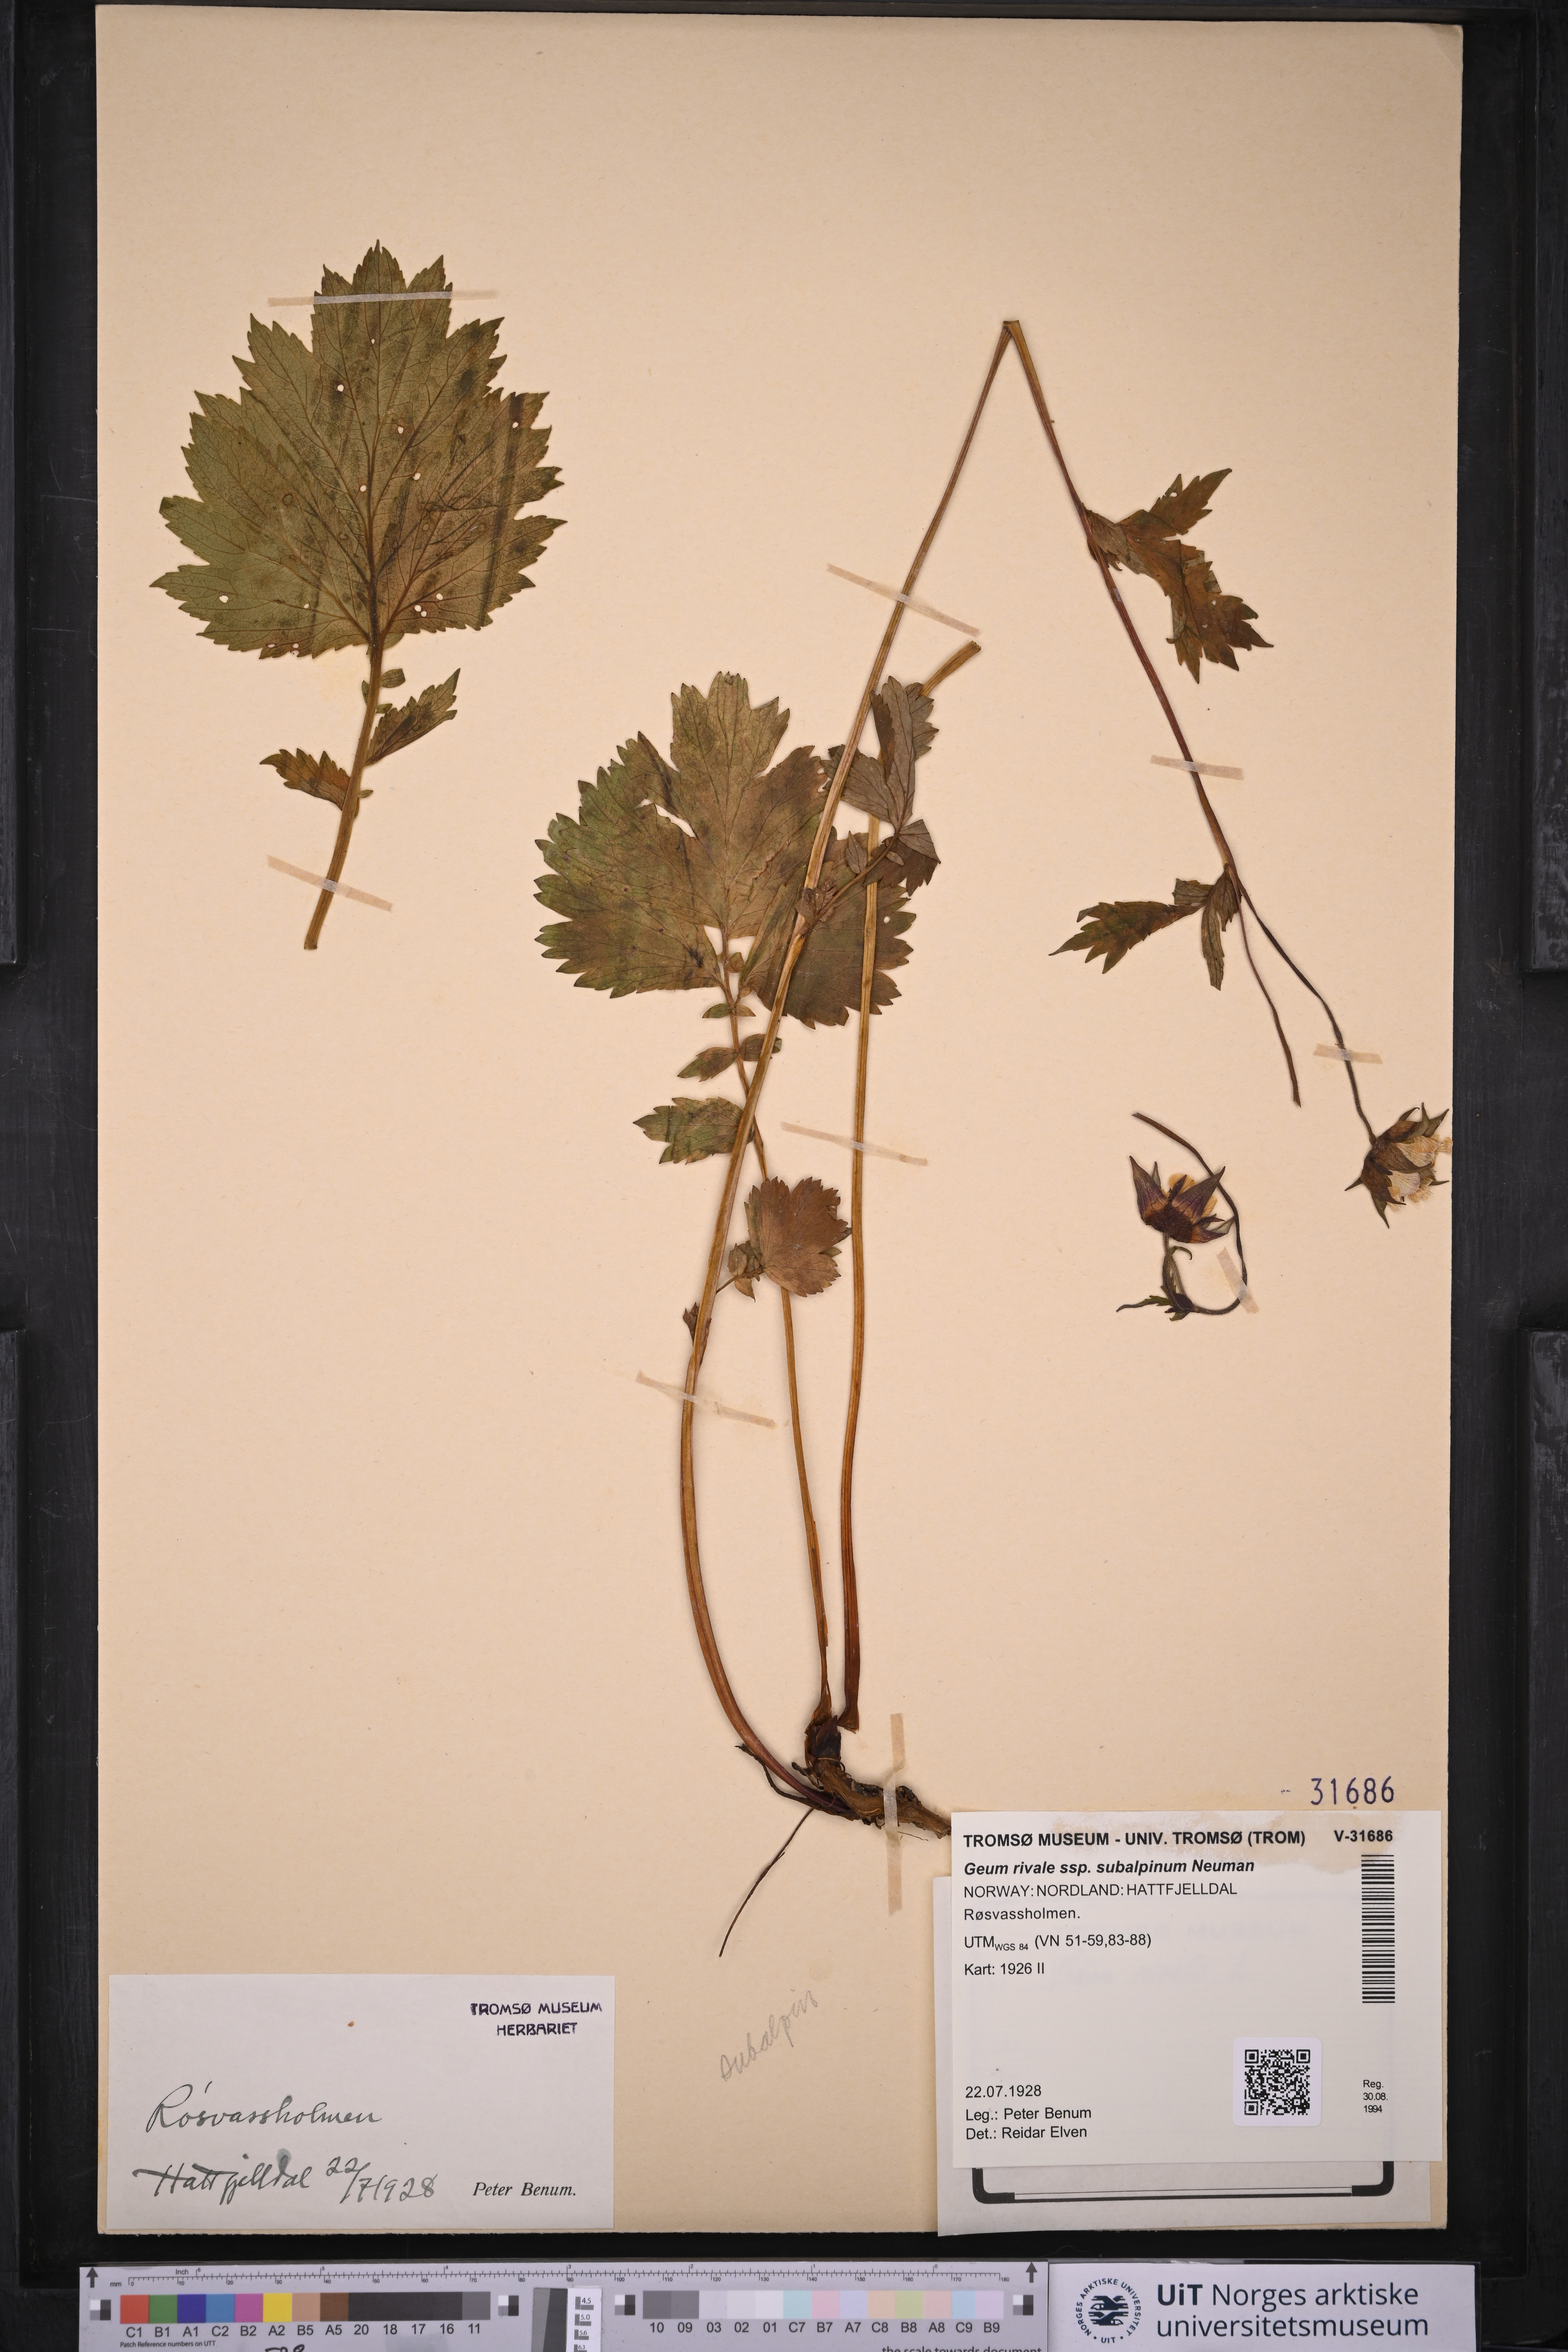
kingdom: Plantae
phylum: Tracheophyta
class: Magnoliopsida
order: Rosales
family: Rosaceae
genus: Geum
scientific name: Geum rivale
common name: Water avens
